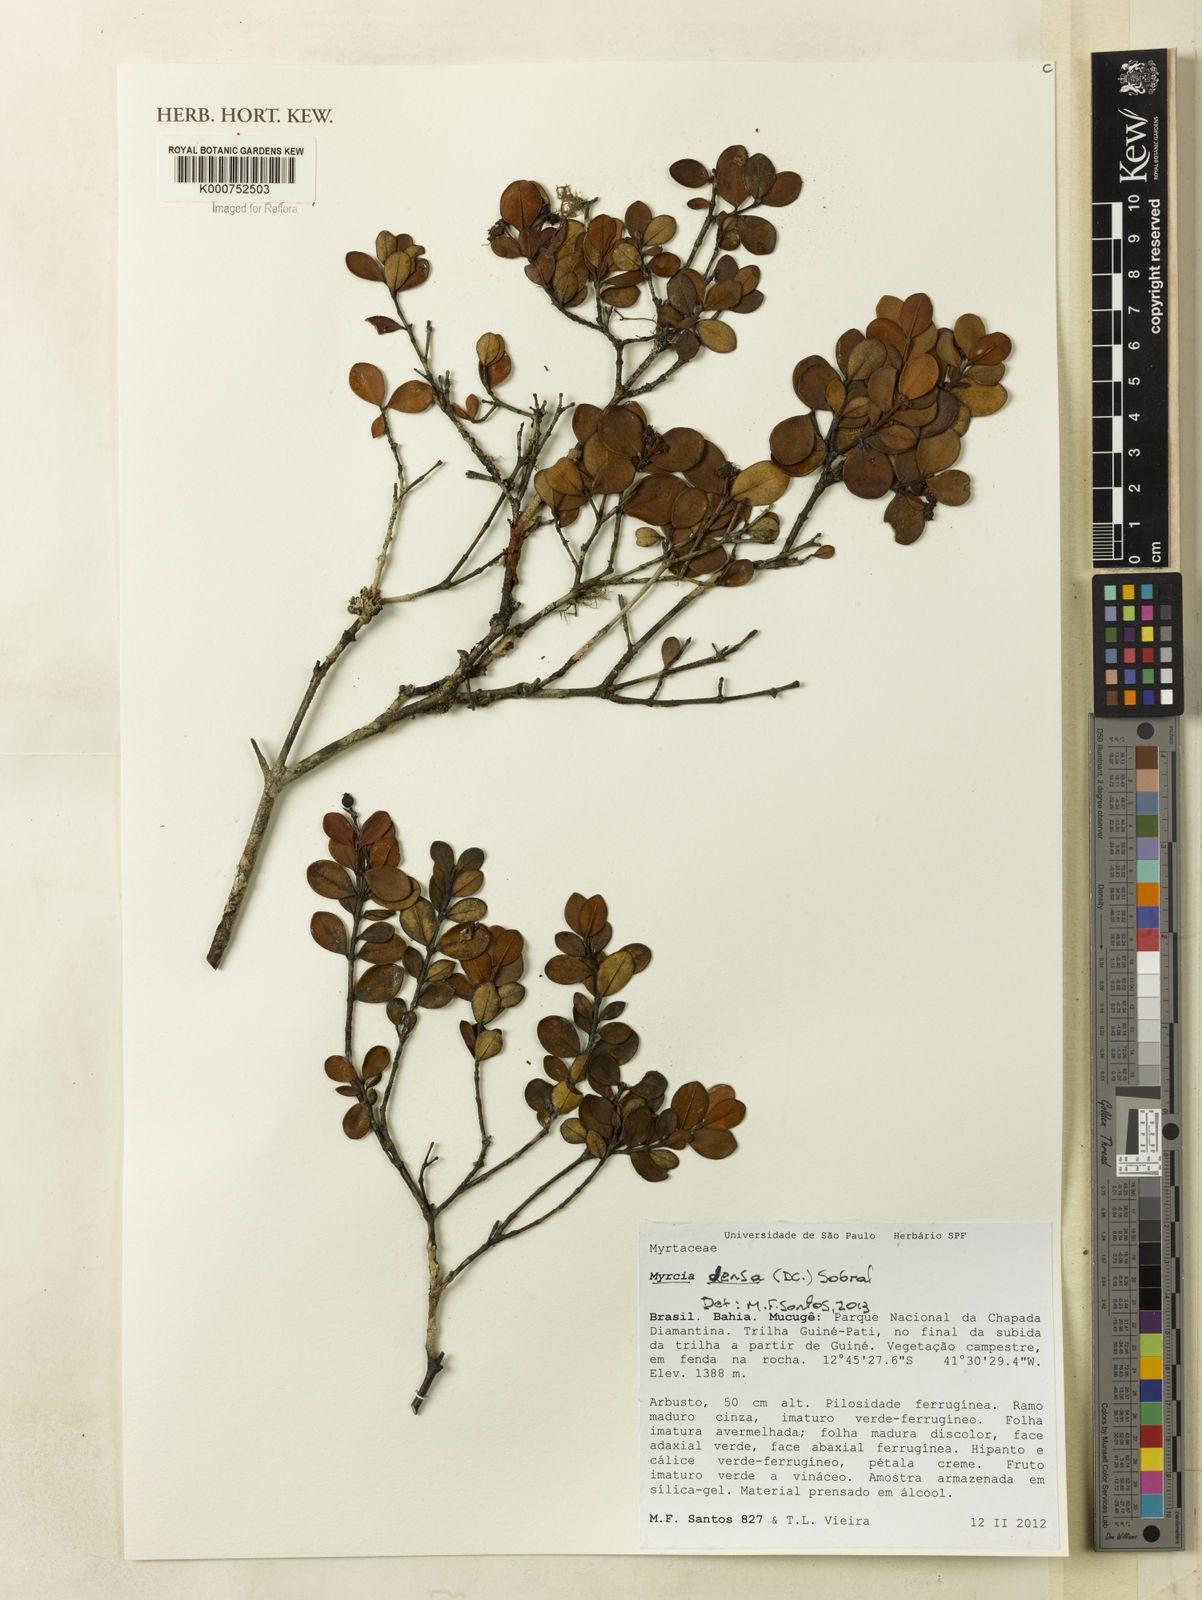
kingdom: Plantae
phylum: Tracheophyta
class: Magnoliopsida
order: Myrtales
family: Myrtaceae
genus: Myrcia
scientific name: Myrcia densa
